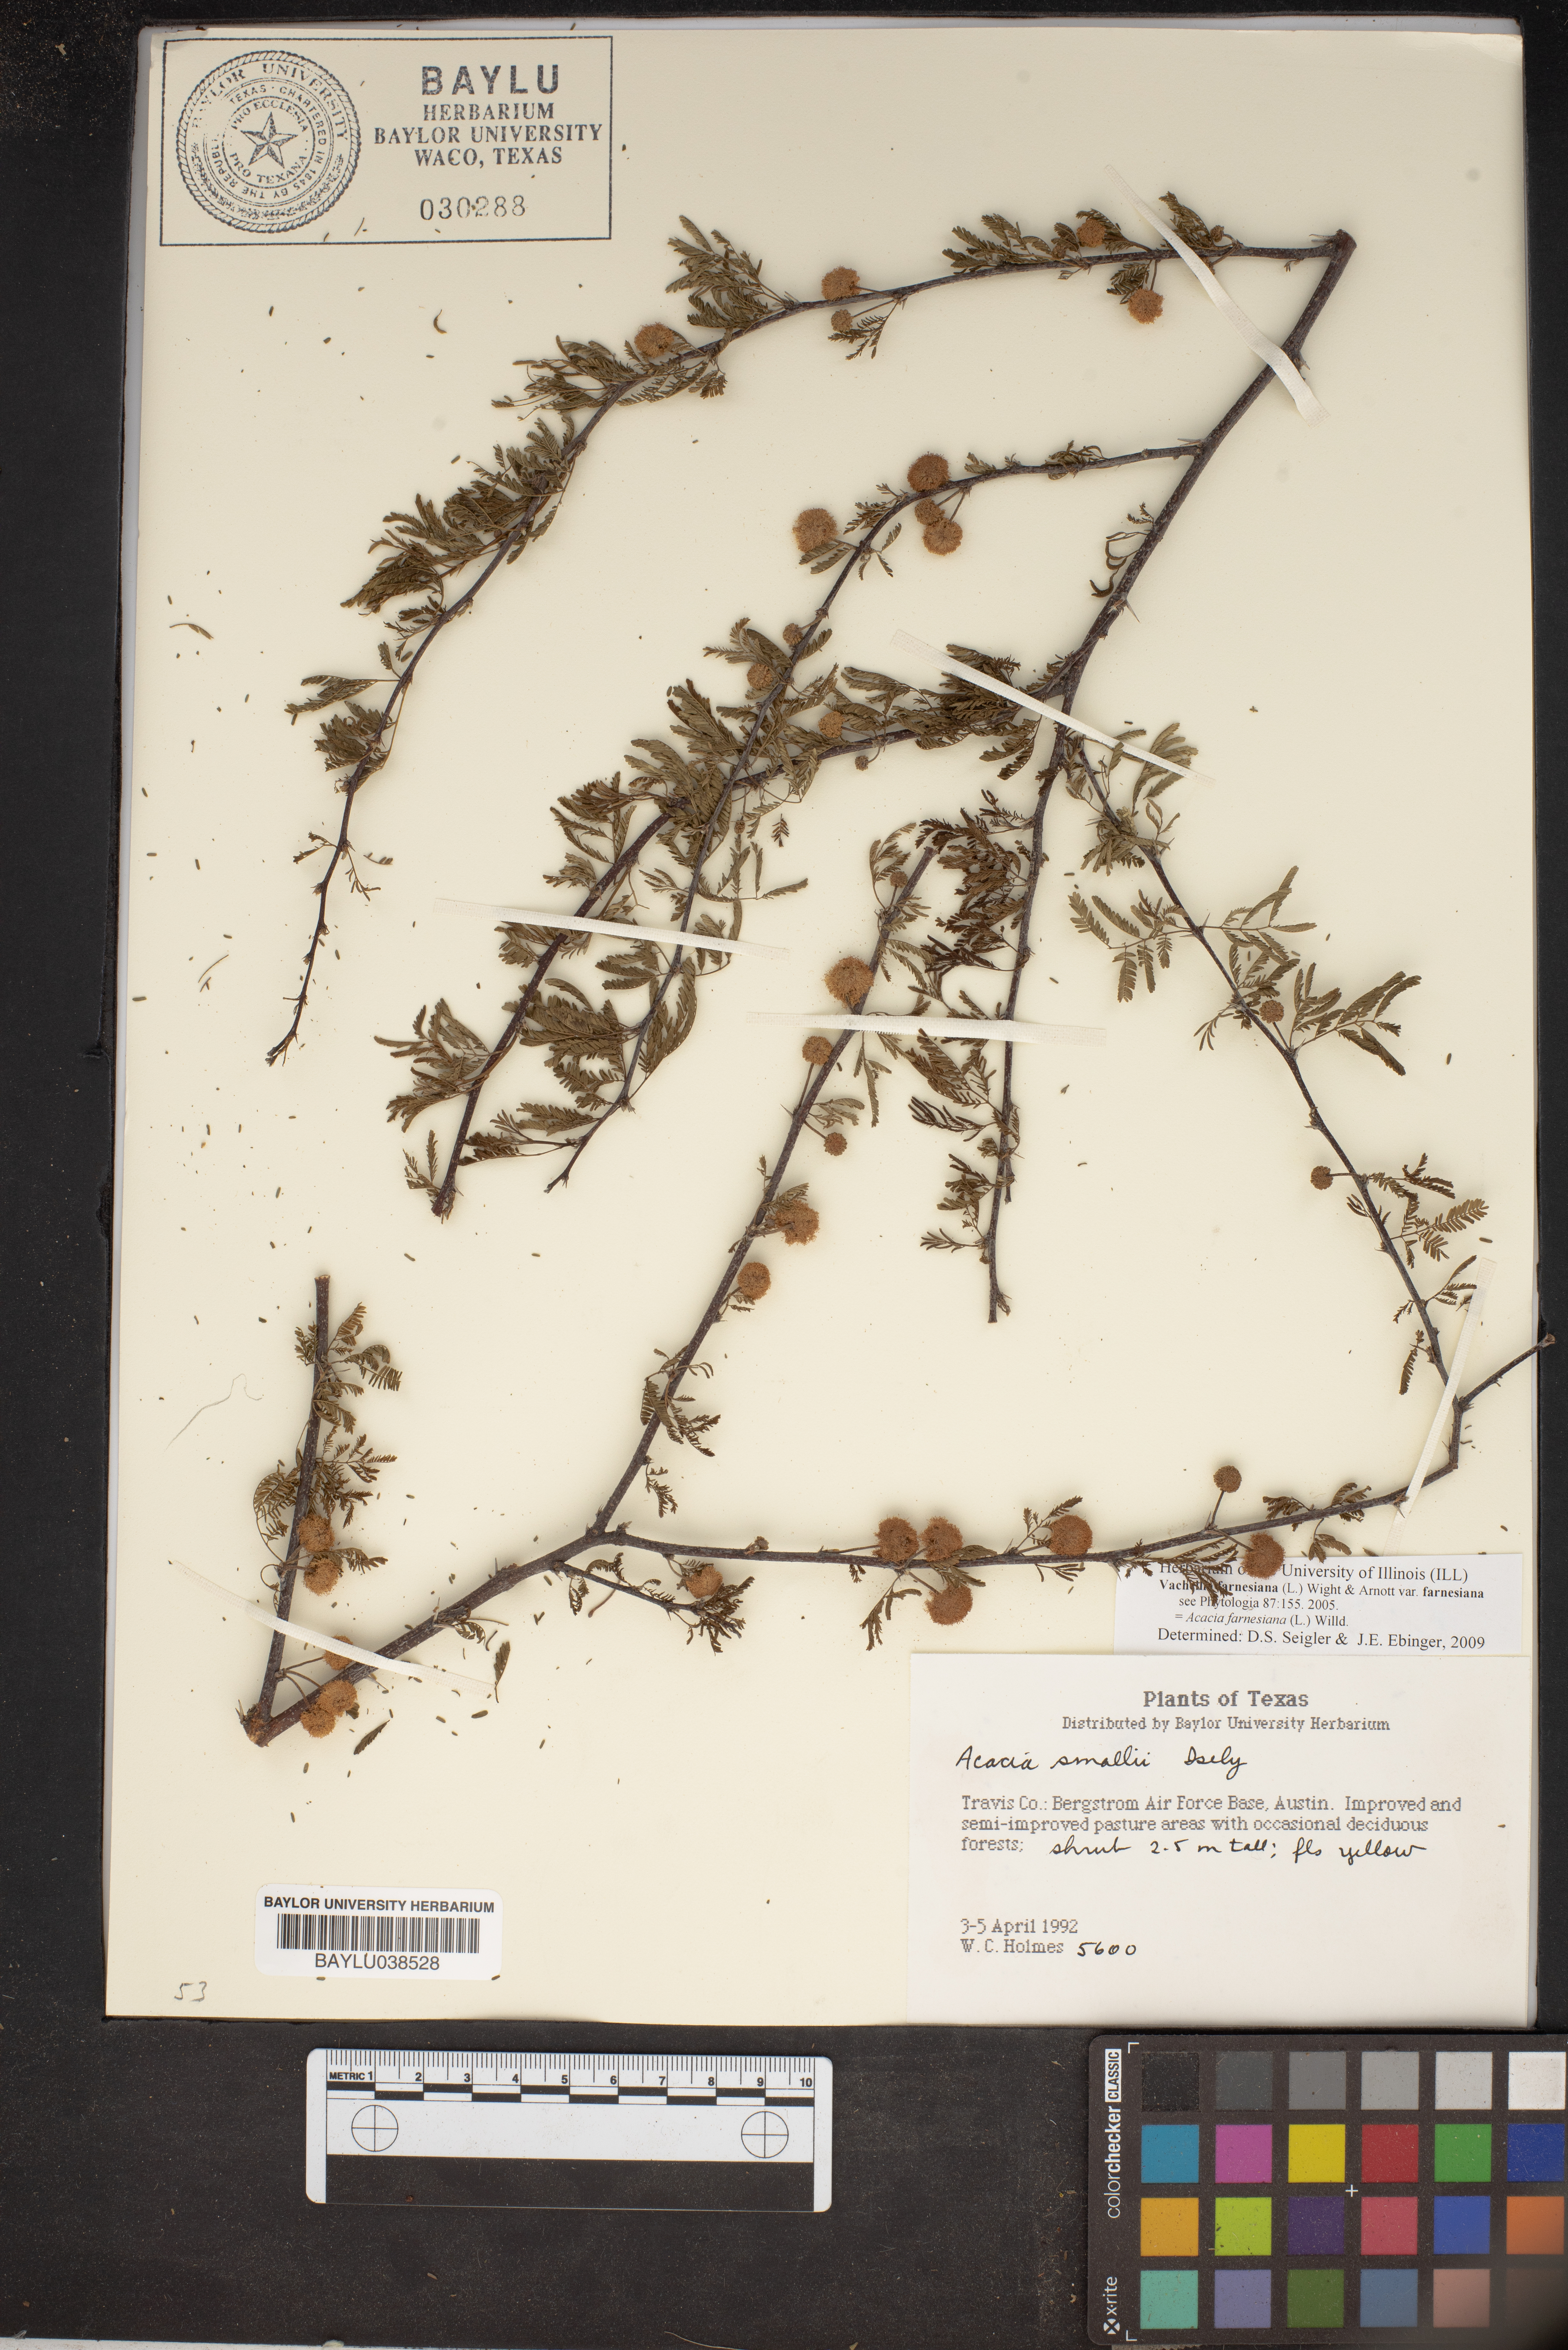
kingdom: Plantae
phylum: Tracheophyta
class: Magnoliopsida
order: Fabales
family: Fabaceae
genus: Vachellia
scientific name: Vachellia farnesiana
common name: Sweet acacia
